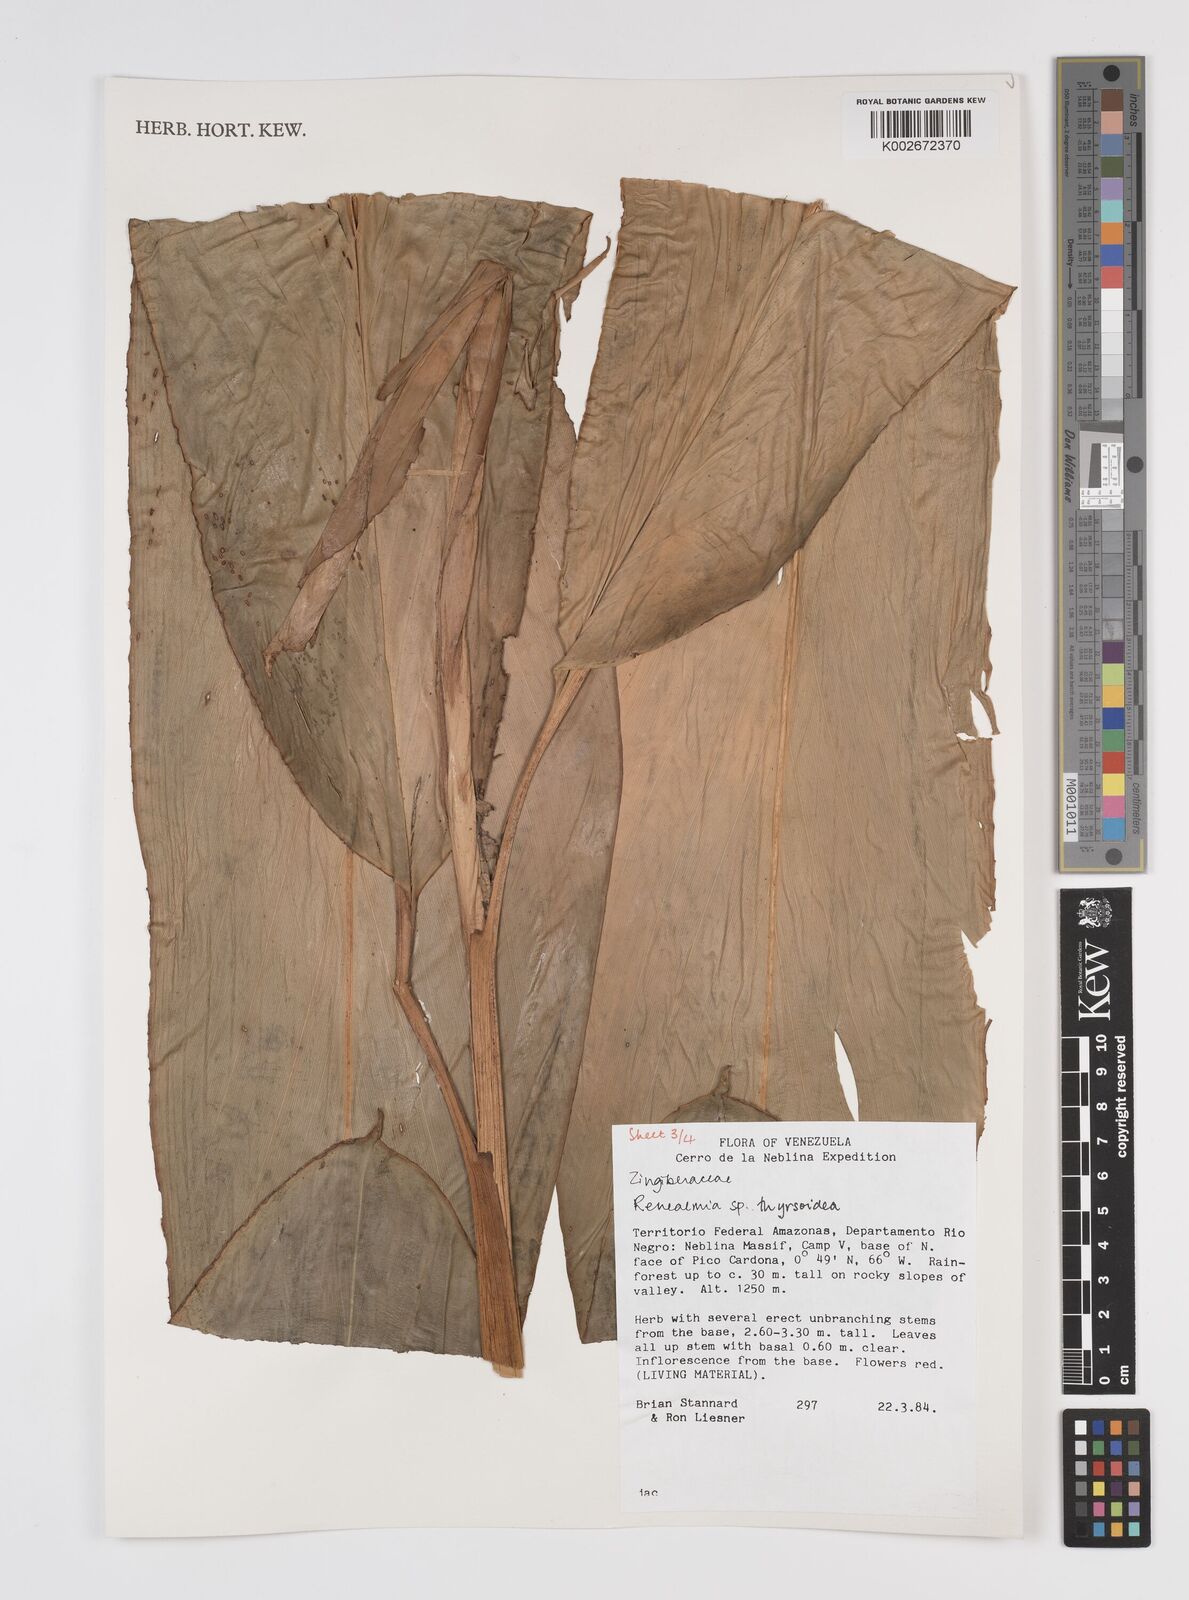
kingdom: Plantae
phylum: Tracheophyta
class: Liliopsida
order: Zingiberales
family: Zingiberaceae
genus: Renealmia
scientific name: Renealmia thyrsoidea
